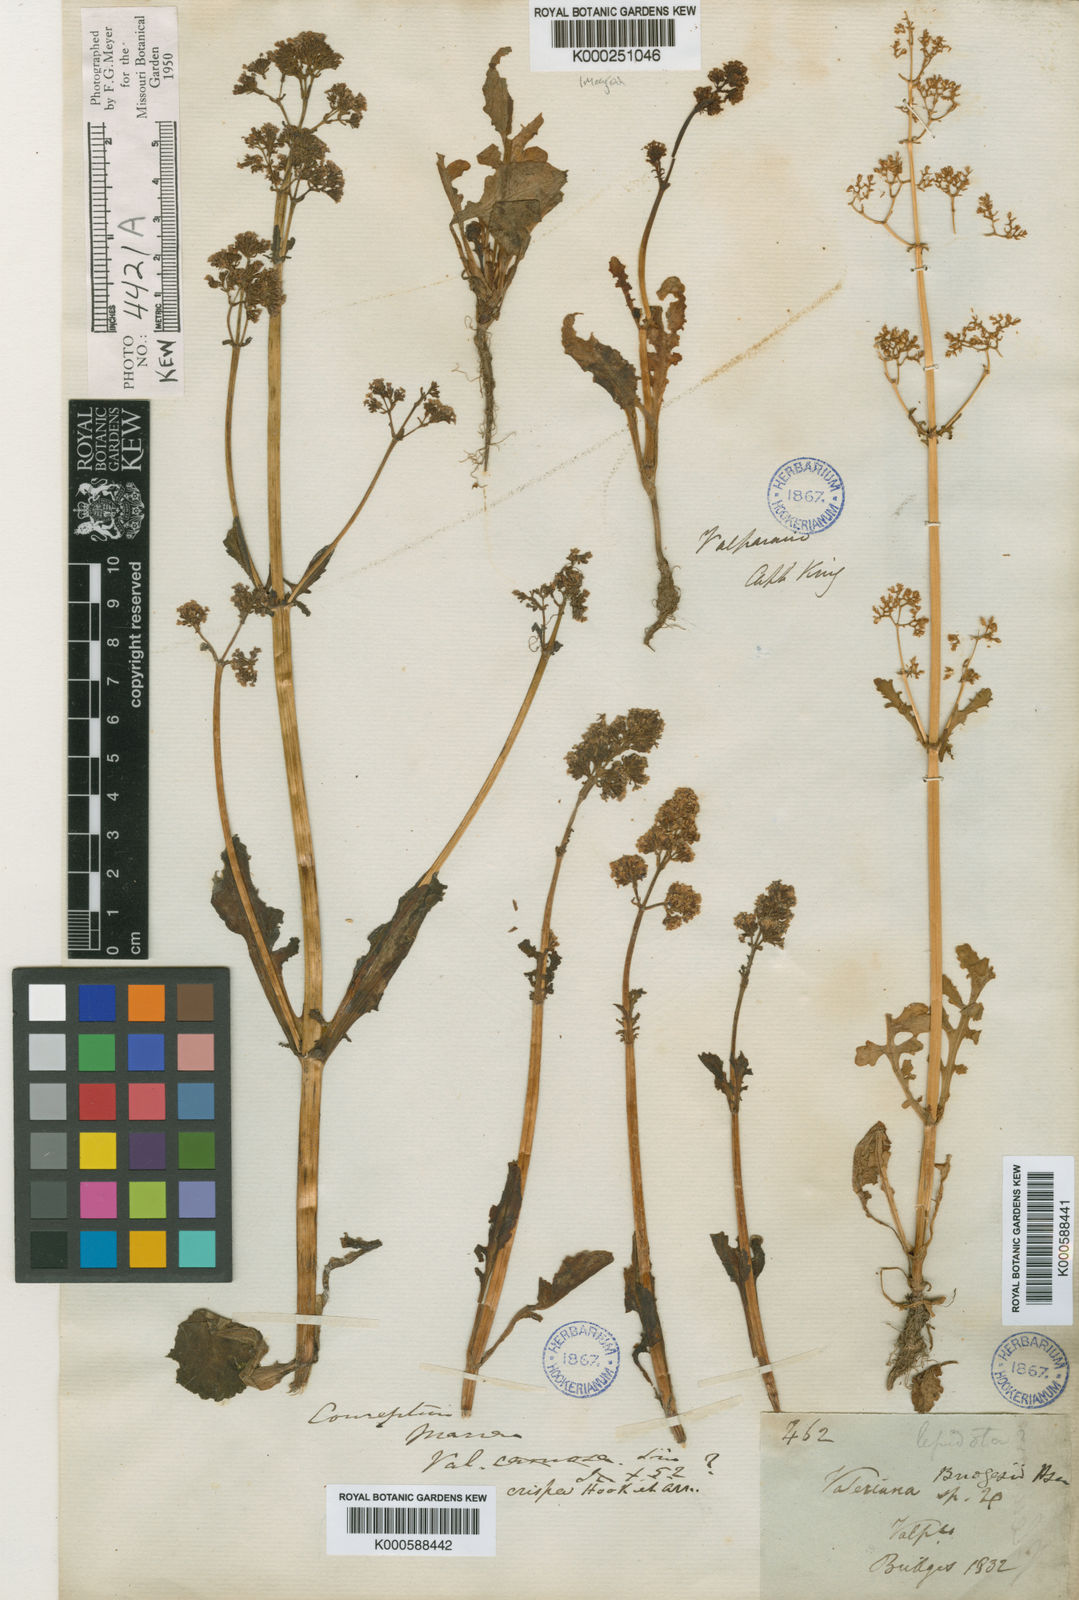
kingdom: Plantae
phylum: Tracheophyta
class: Magnoliopsida
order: Dipsacales
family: Caprifoliaceae
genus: Valeriana
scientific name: Valeriana bridgesii
